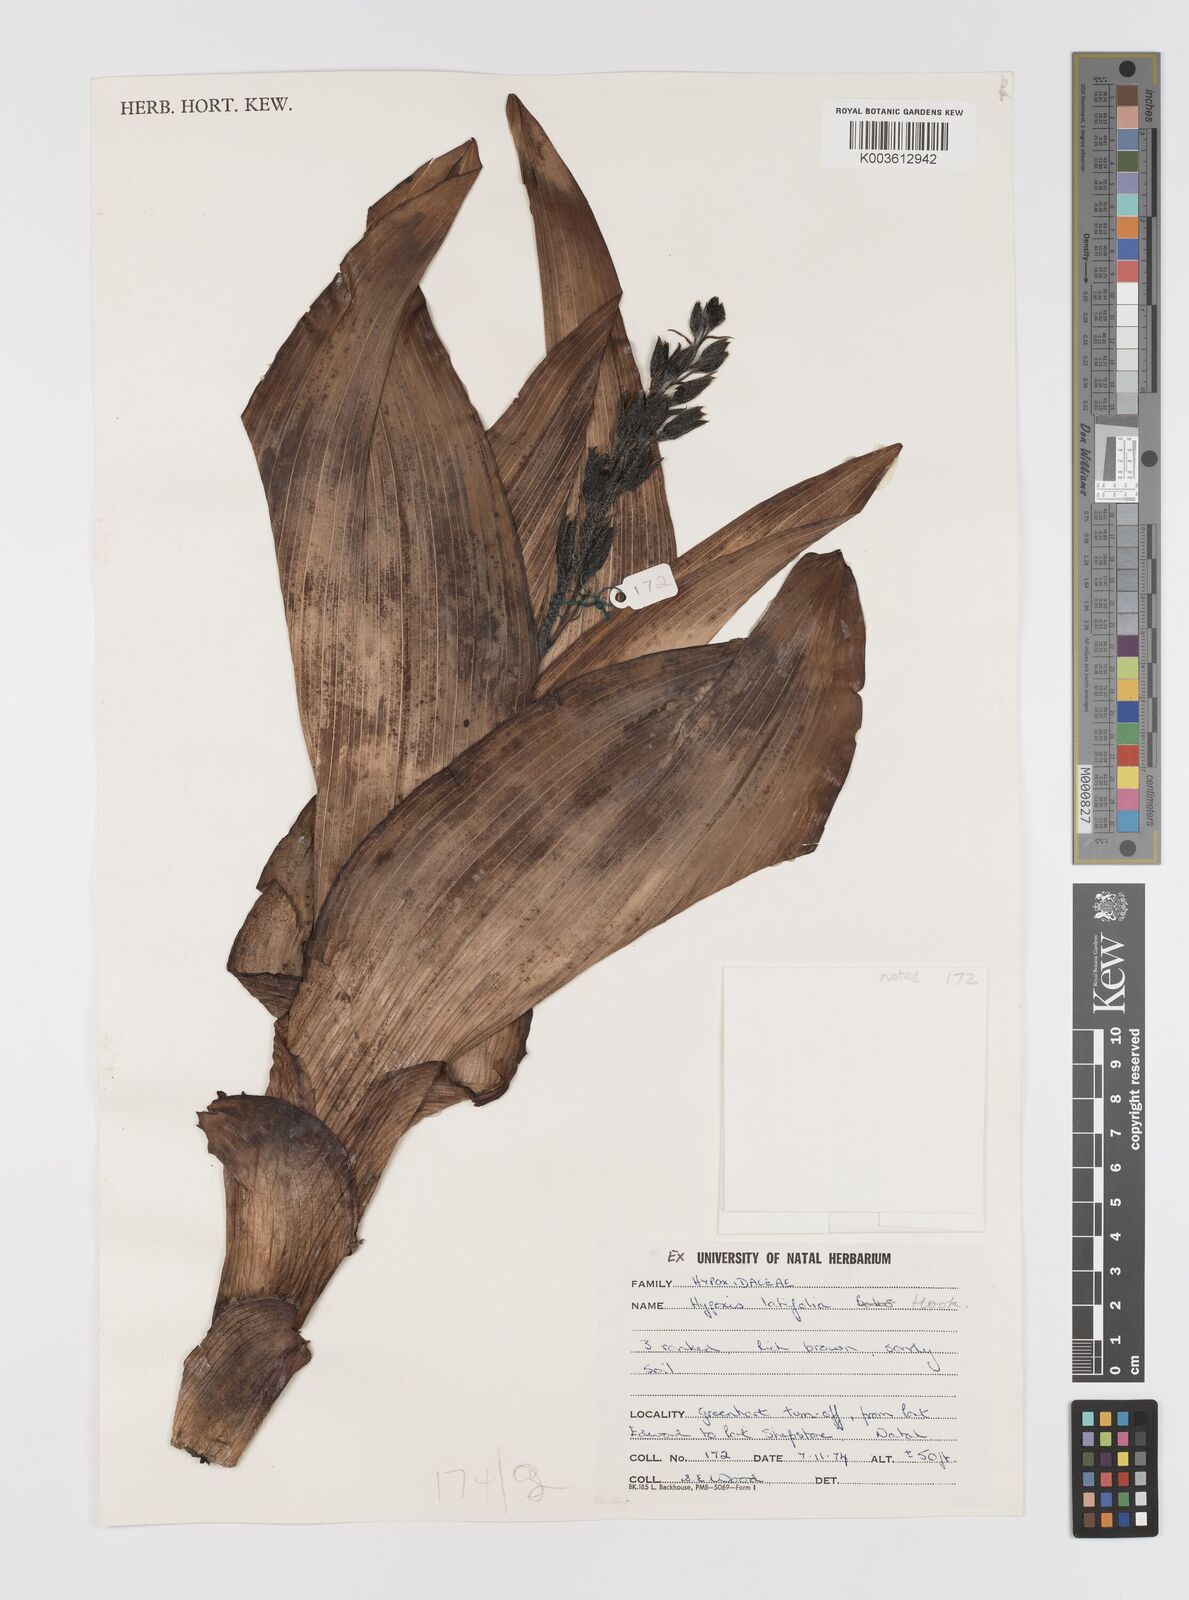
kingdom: Plantae
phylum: Tracheophyta
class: Liliopsida
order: Asparagales
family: Hypoxidaceae
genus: Hypoxis
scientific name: Hypoxis
